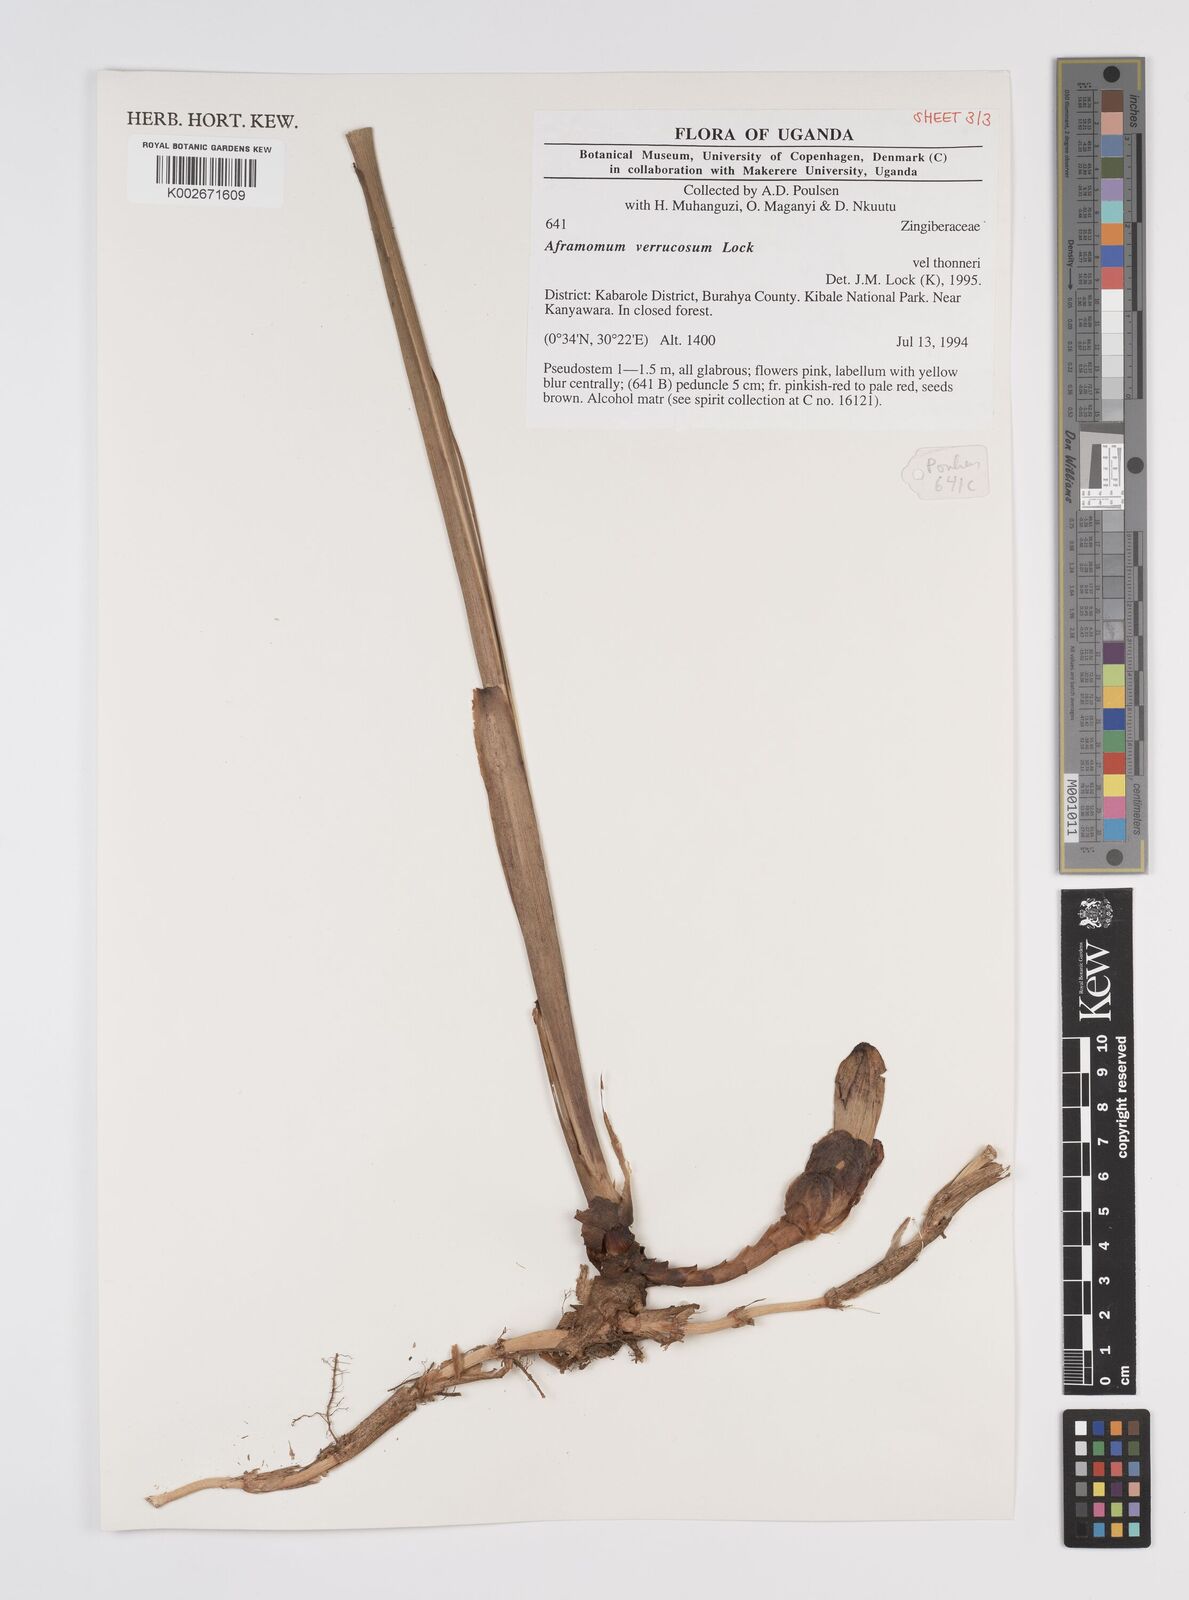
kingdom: Plantae
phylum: Tracheophyta
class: Liliopsida
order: Zingiberales
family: Zingiberaceae
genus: Aframomum
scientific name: Aframomum verrucosum
